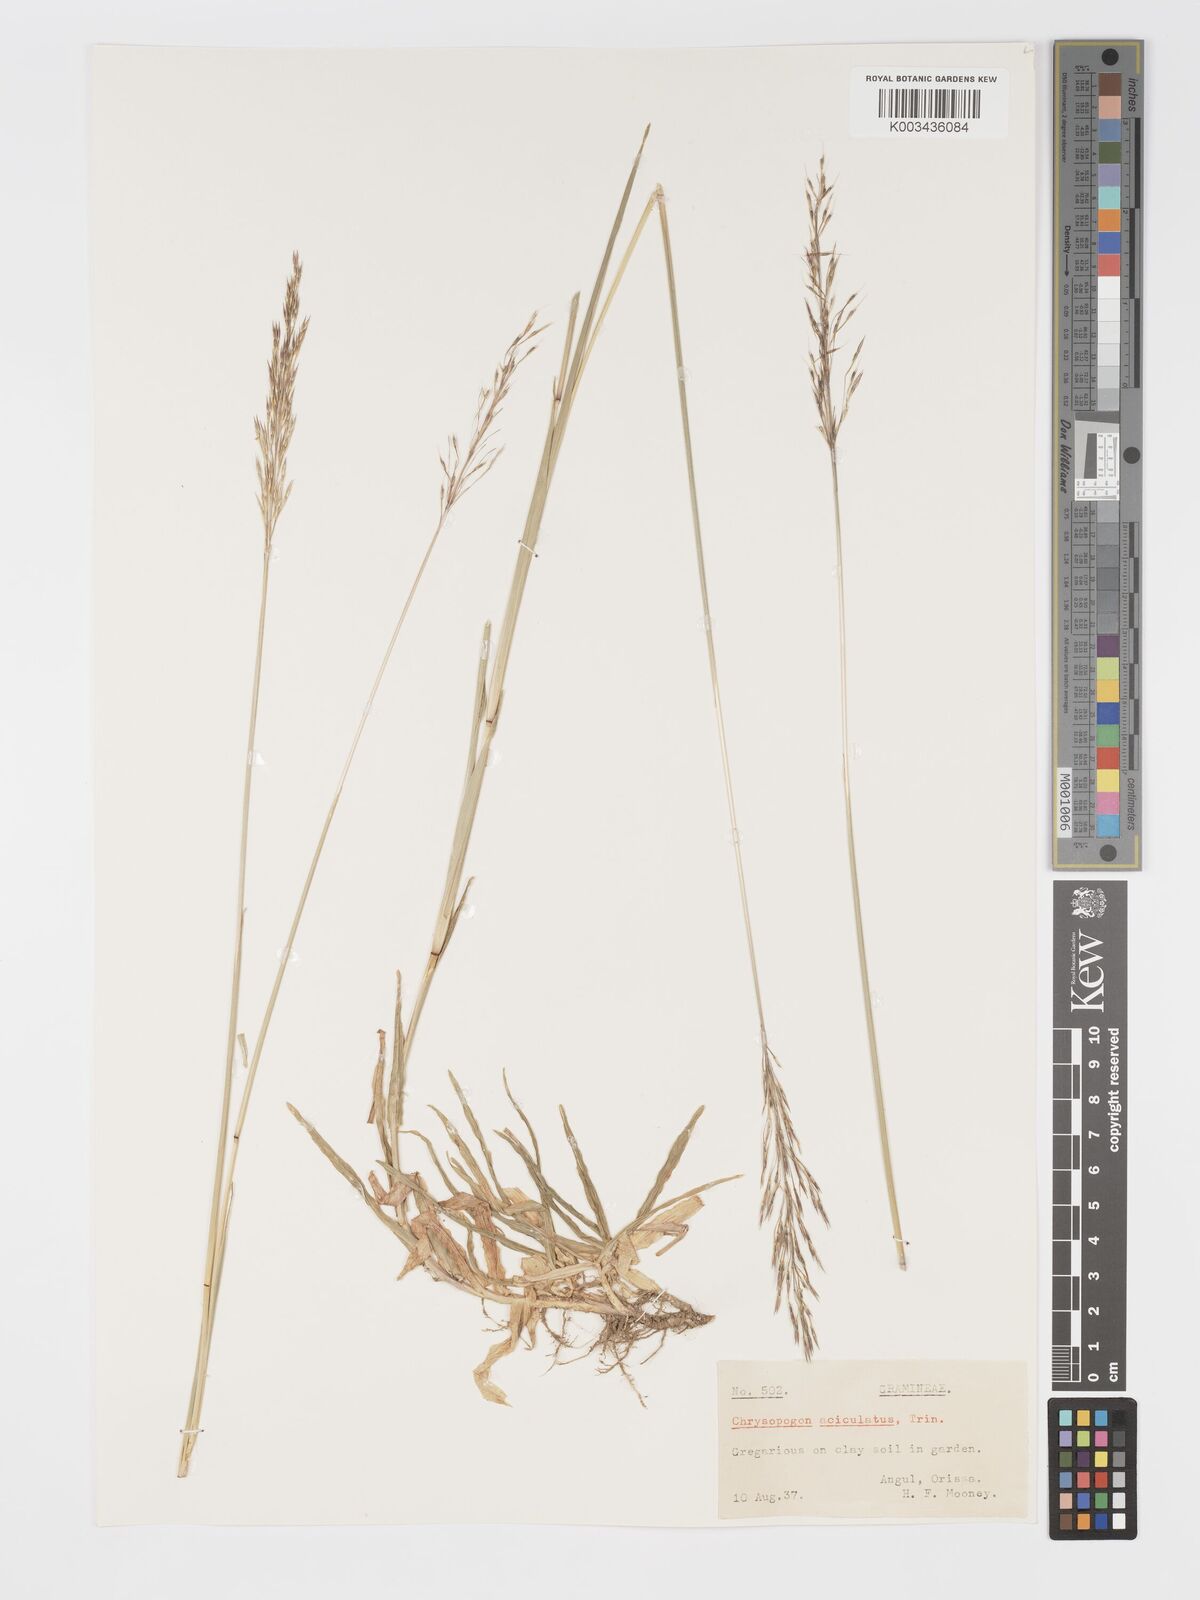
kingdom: Plantae
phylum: Tracheophyta
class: Liliopsida
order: Poales
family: Poaceae
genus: Chrysopogon
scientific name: Chrysopogon aciculatus
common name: Pilipiliula
